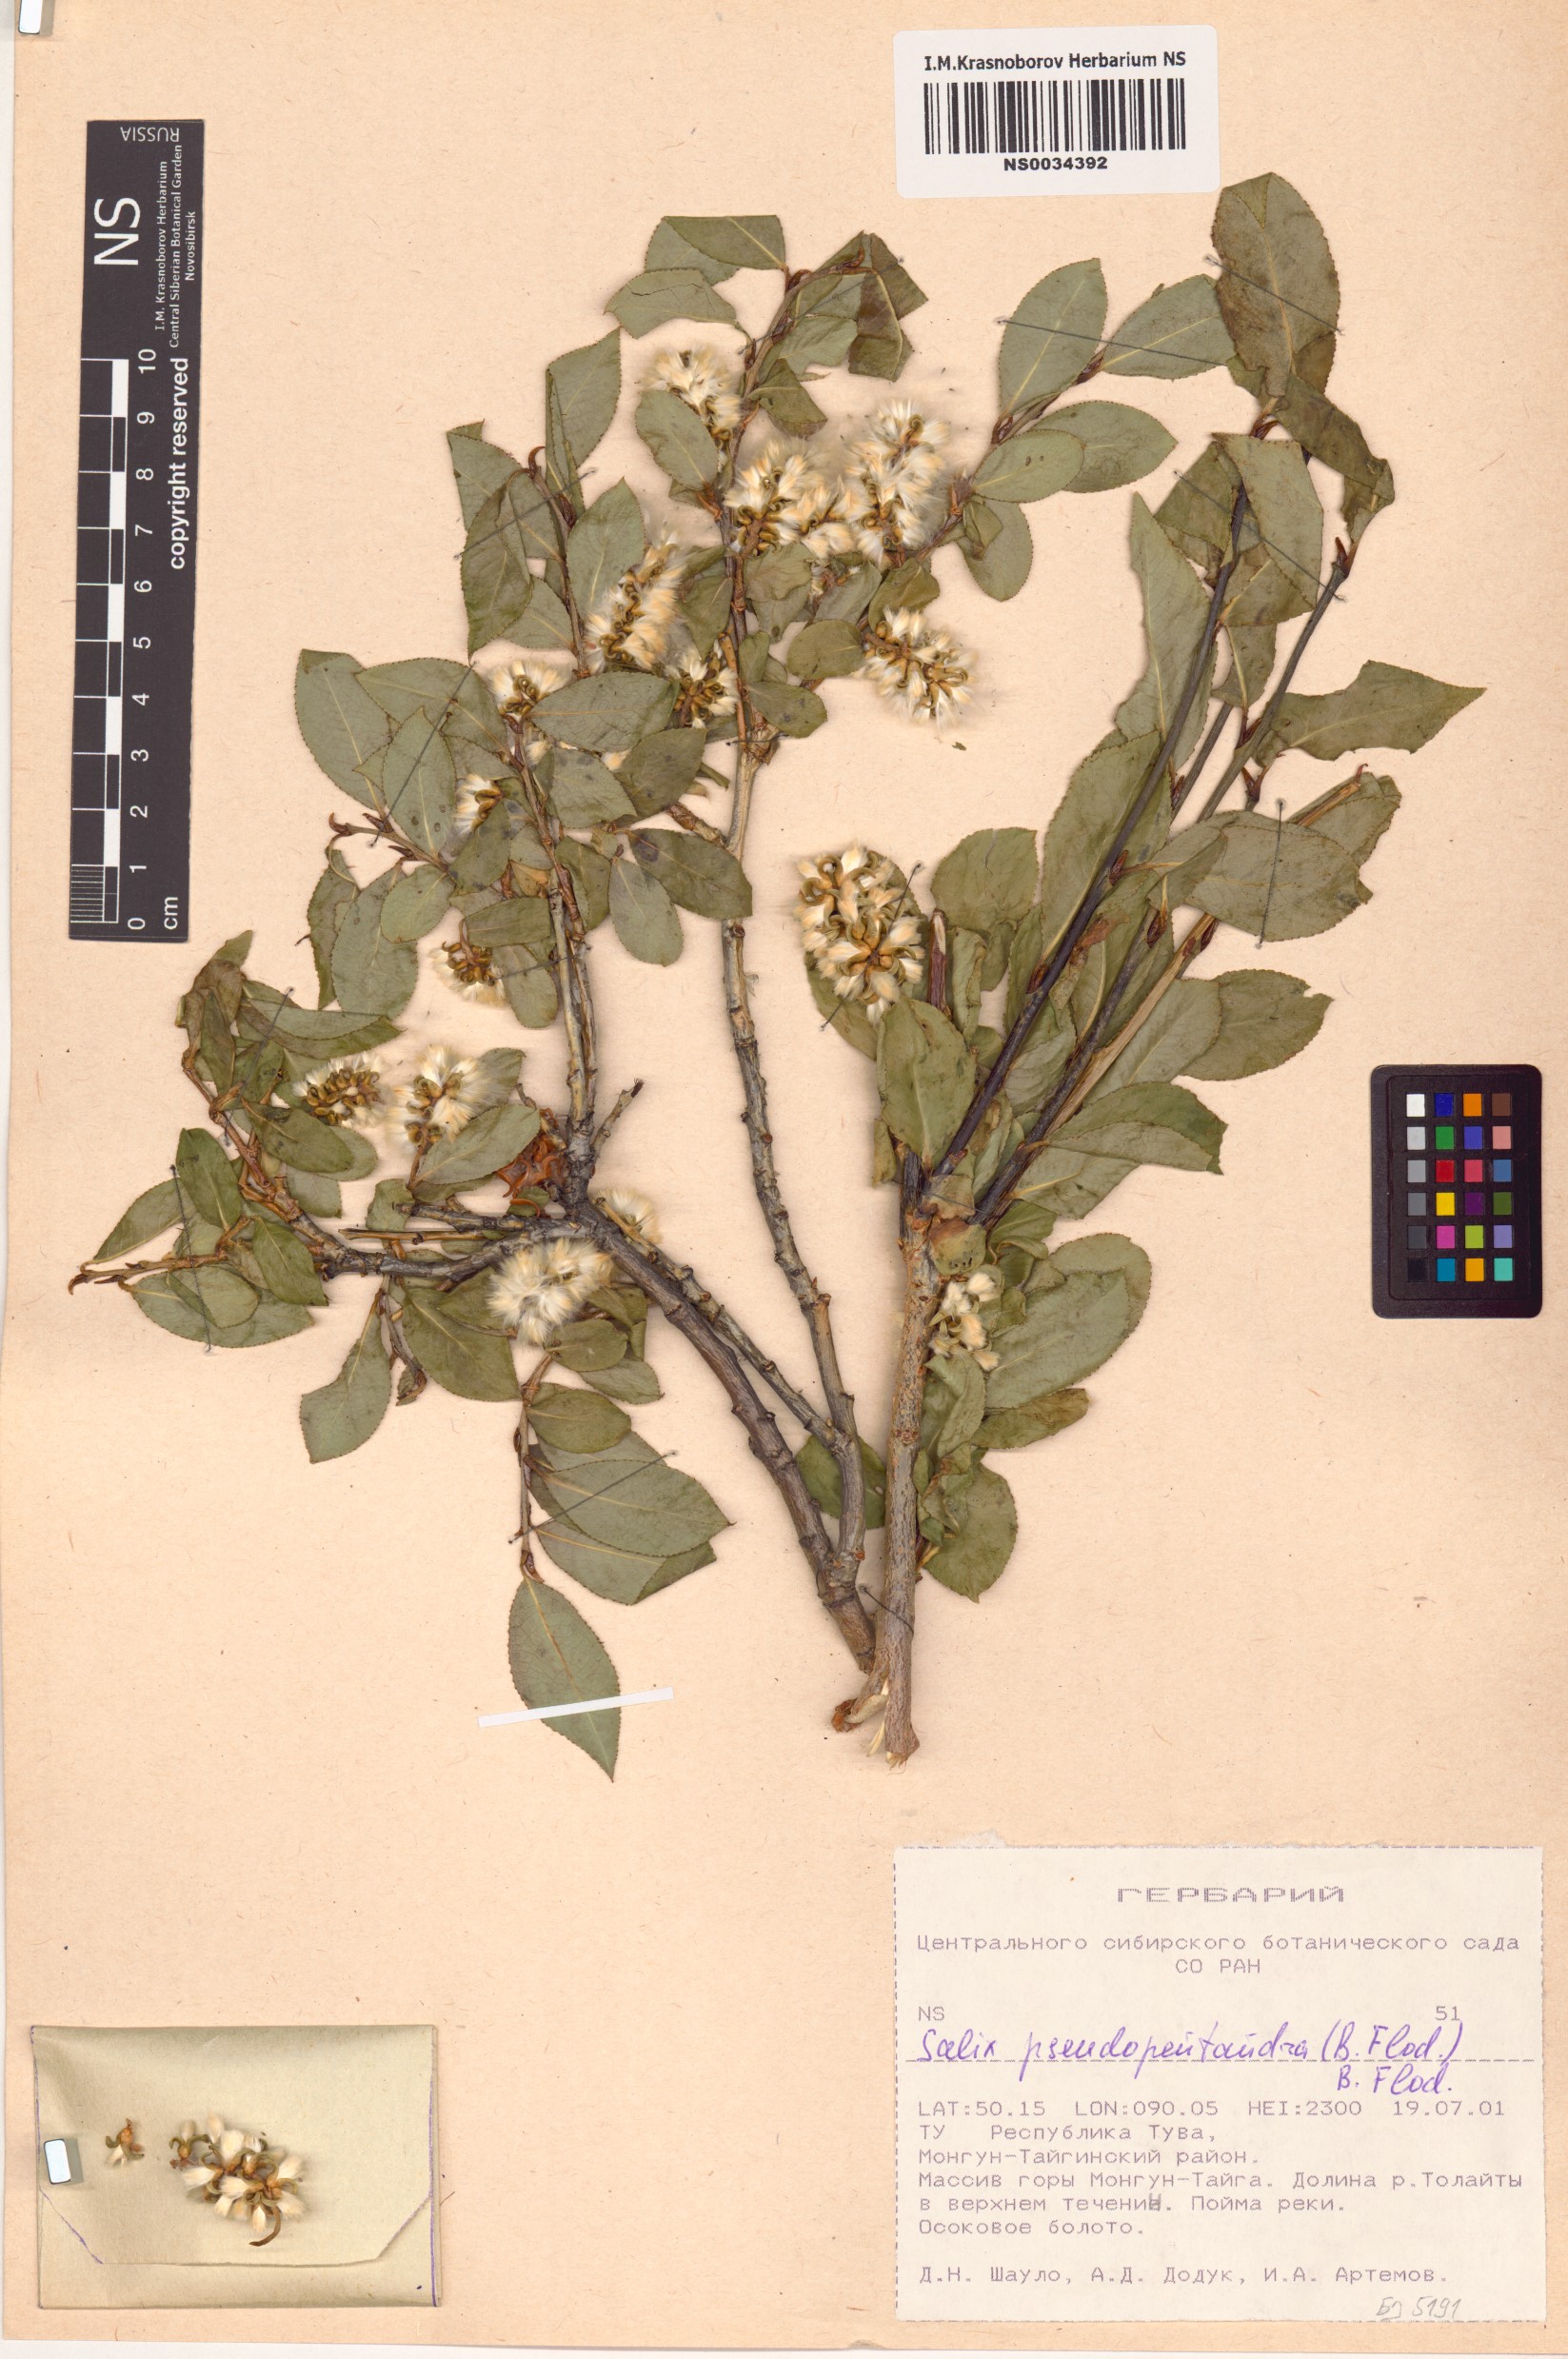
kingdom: Plantae
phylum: Tracheophyta
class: Magnoliopsida
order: Malpighiales
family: Salicaceae
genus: Salix
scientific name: Salix pseudopentandra
